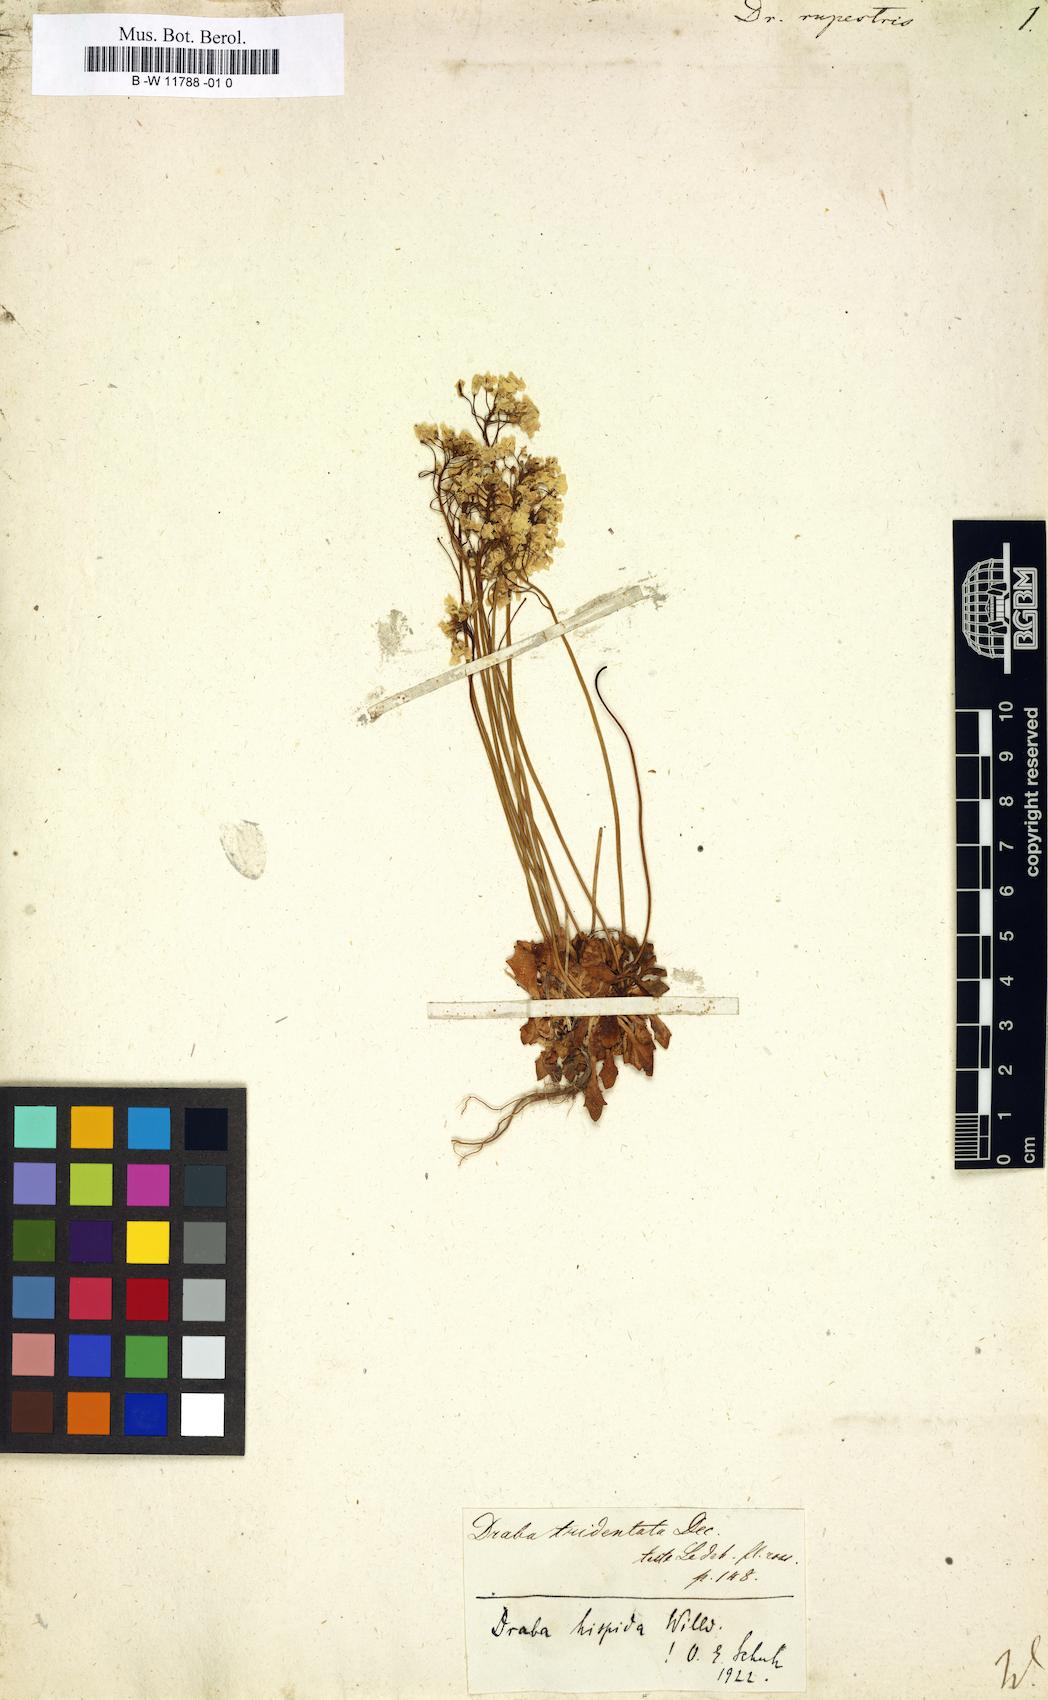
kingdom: Plantae
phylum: Tracheophyta
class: Magnoliopsida
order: Brassicales
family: Brassicaceae
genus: Draba
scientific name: Draba
